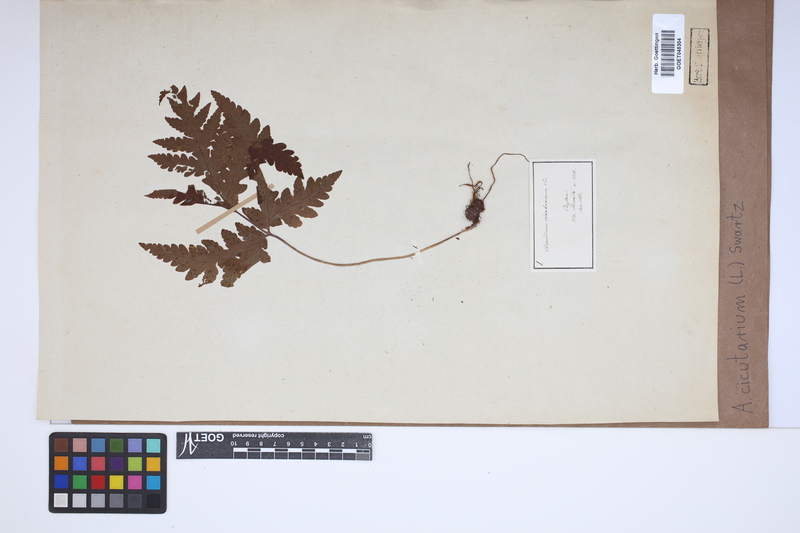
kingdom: Plantae
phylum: Tracheophyta
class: Polypodiopsida
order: Polypodiales
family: Tectariaceae
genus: Tectaria
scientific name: Tectaria cicutaria
